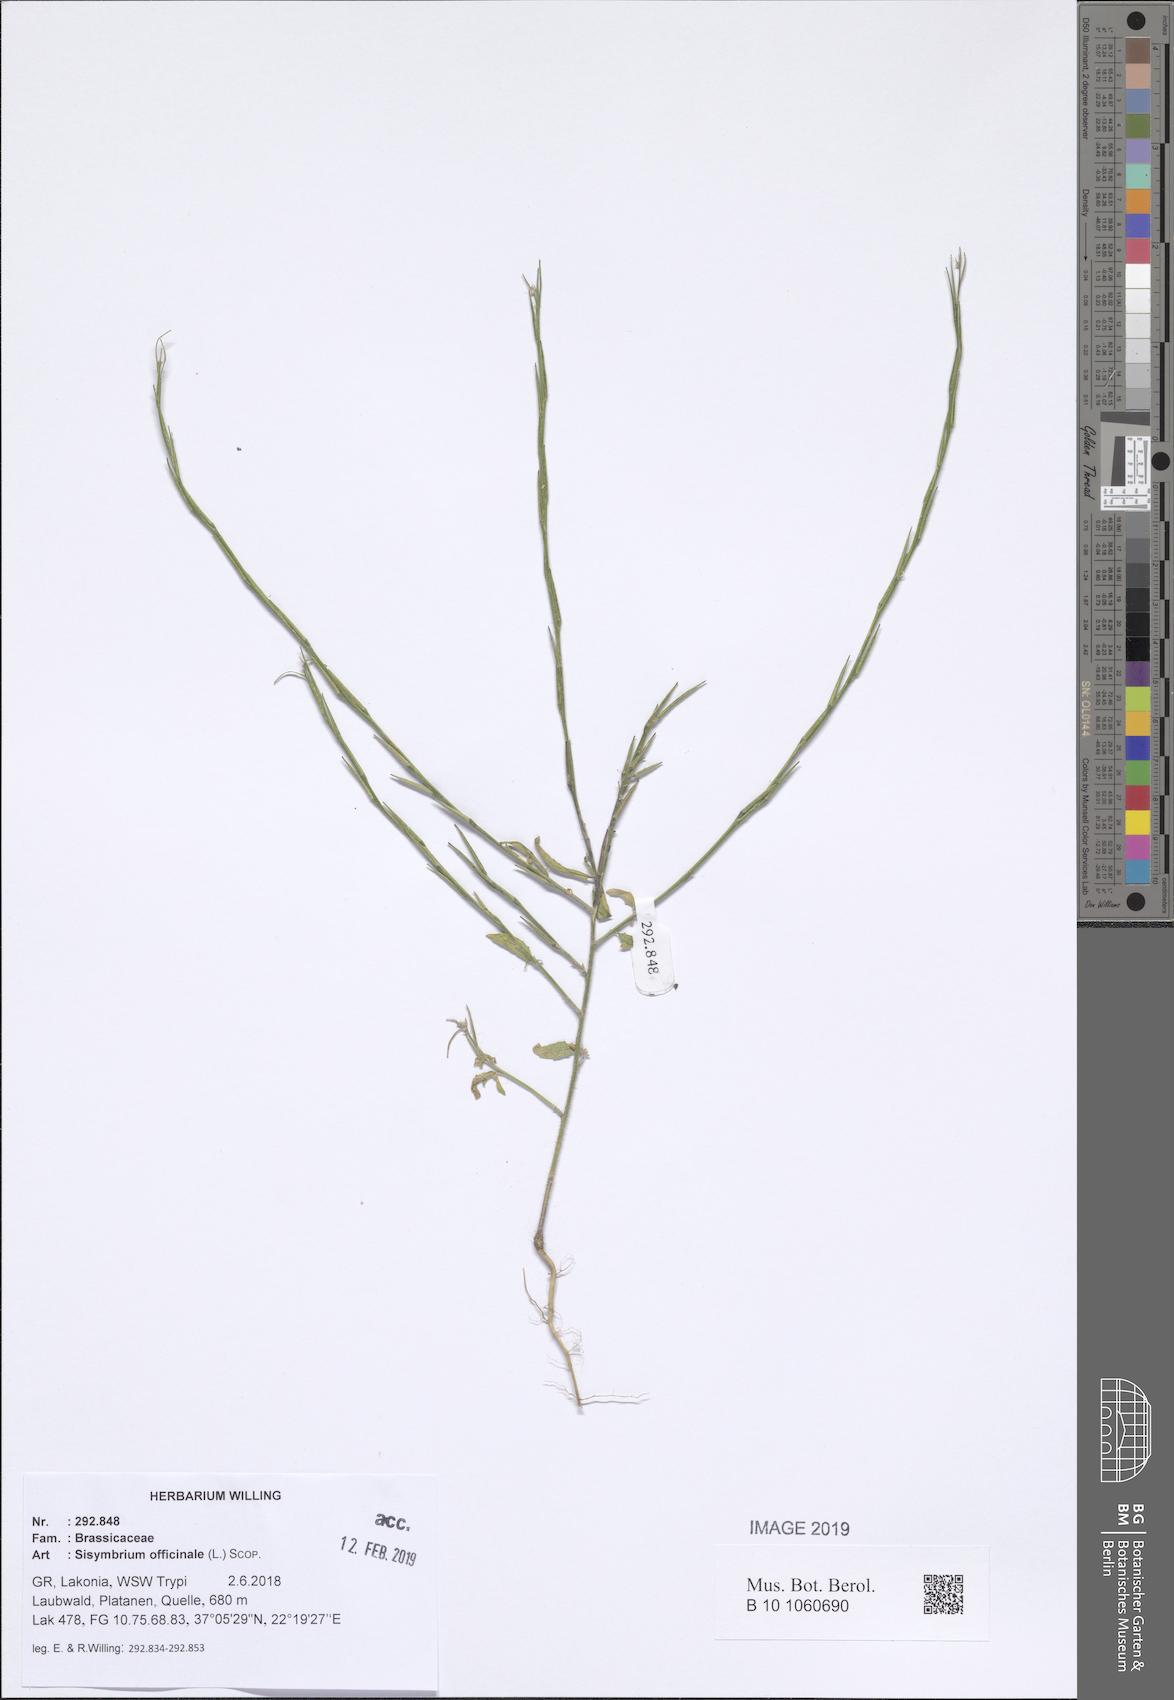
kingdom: Plantae
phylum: Tracheophyta
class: Magnoliopsida
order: Brassicales
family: Brassicaceae
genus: Sisymbrium
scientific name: Sisymbrium officinale
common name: Hedge mustard
